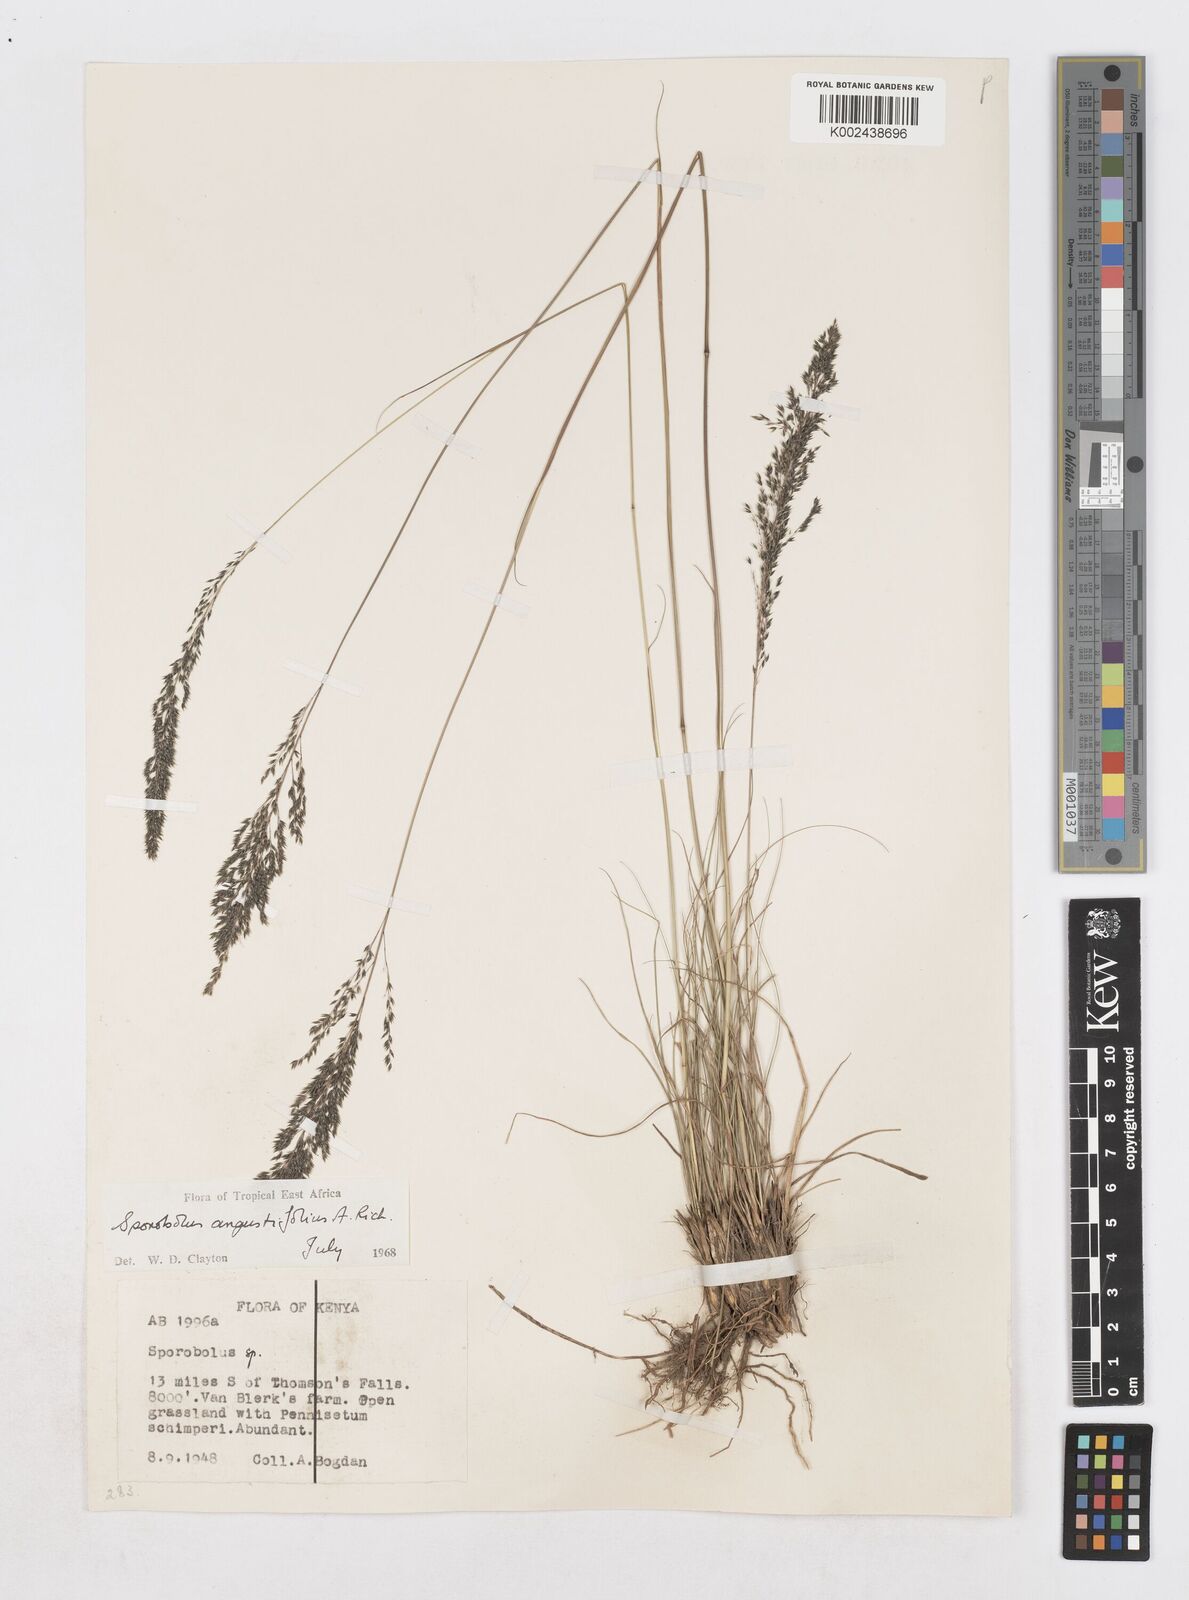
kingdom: Plantae
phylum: Tracheophyta
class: Liliopsida
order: Poales
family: Poaceae
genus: Sporobolus
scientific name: Sporobolus angustifolius
